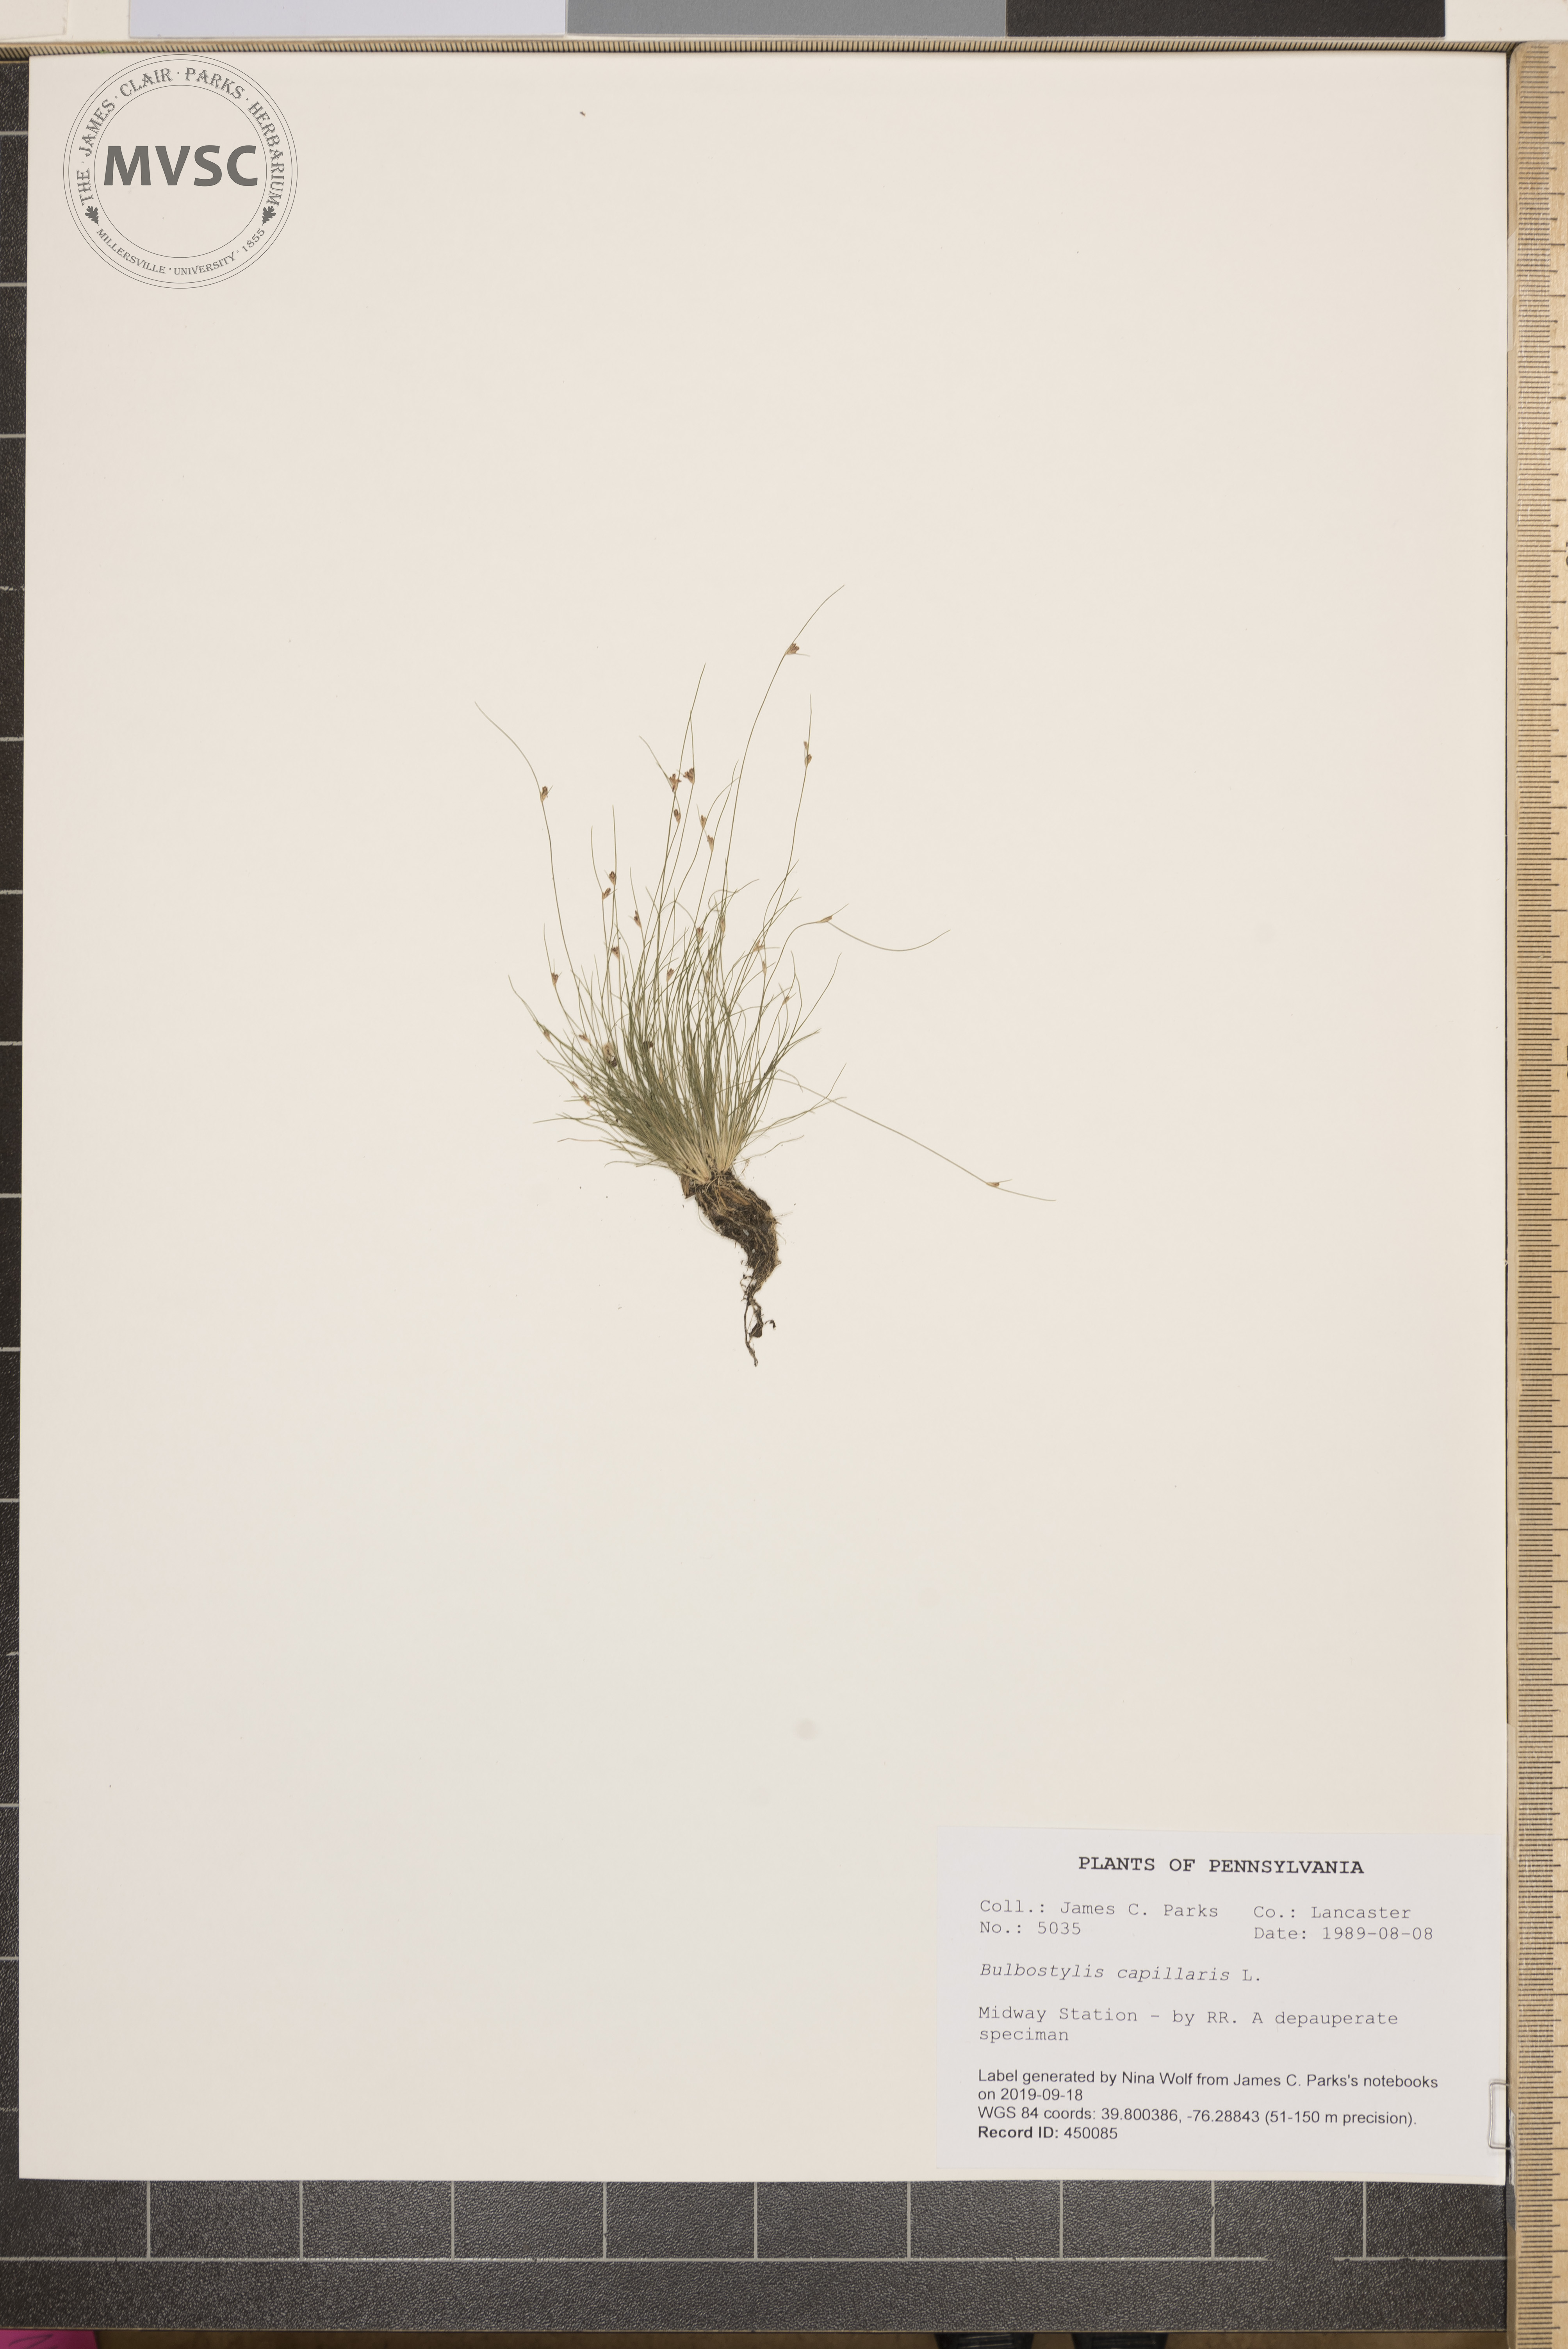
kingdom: Plantae
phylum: Tracheophyta
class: Liliopsida
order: Poales
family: Cyperaceae
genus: Bulbostylis
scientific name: Bulbostylis capillaris
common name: Densetuft hairsedge
